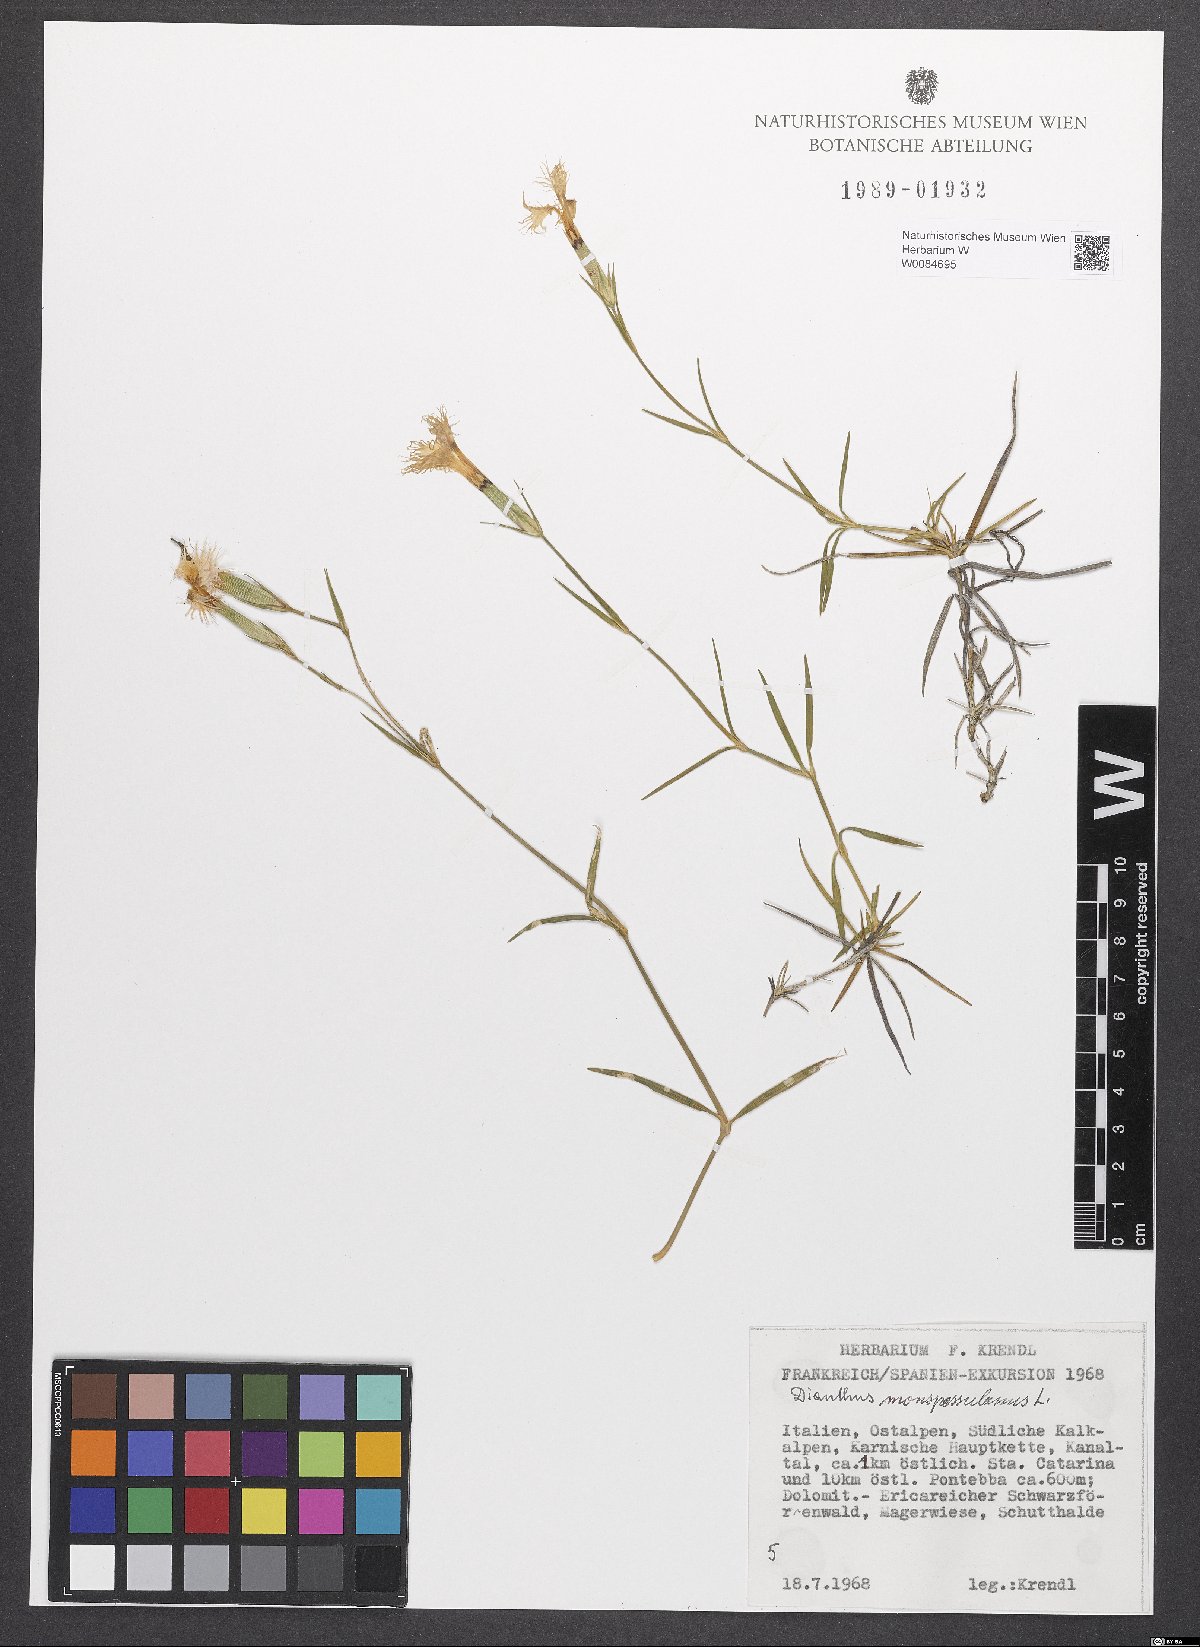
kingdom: Plantae
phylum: Tracheophyta
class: Magnoliopsida
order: Caryophyllales
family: Caryophyllaceae
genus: Dianthus
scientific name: Dianthus hyssopifolius
